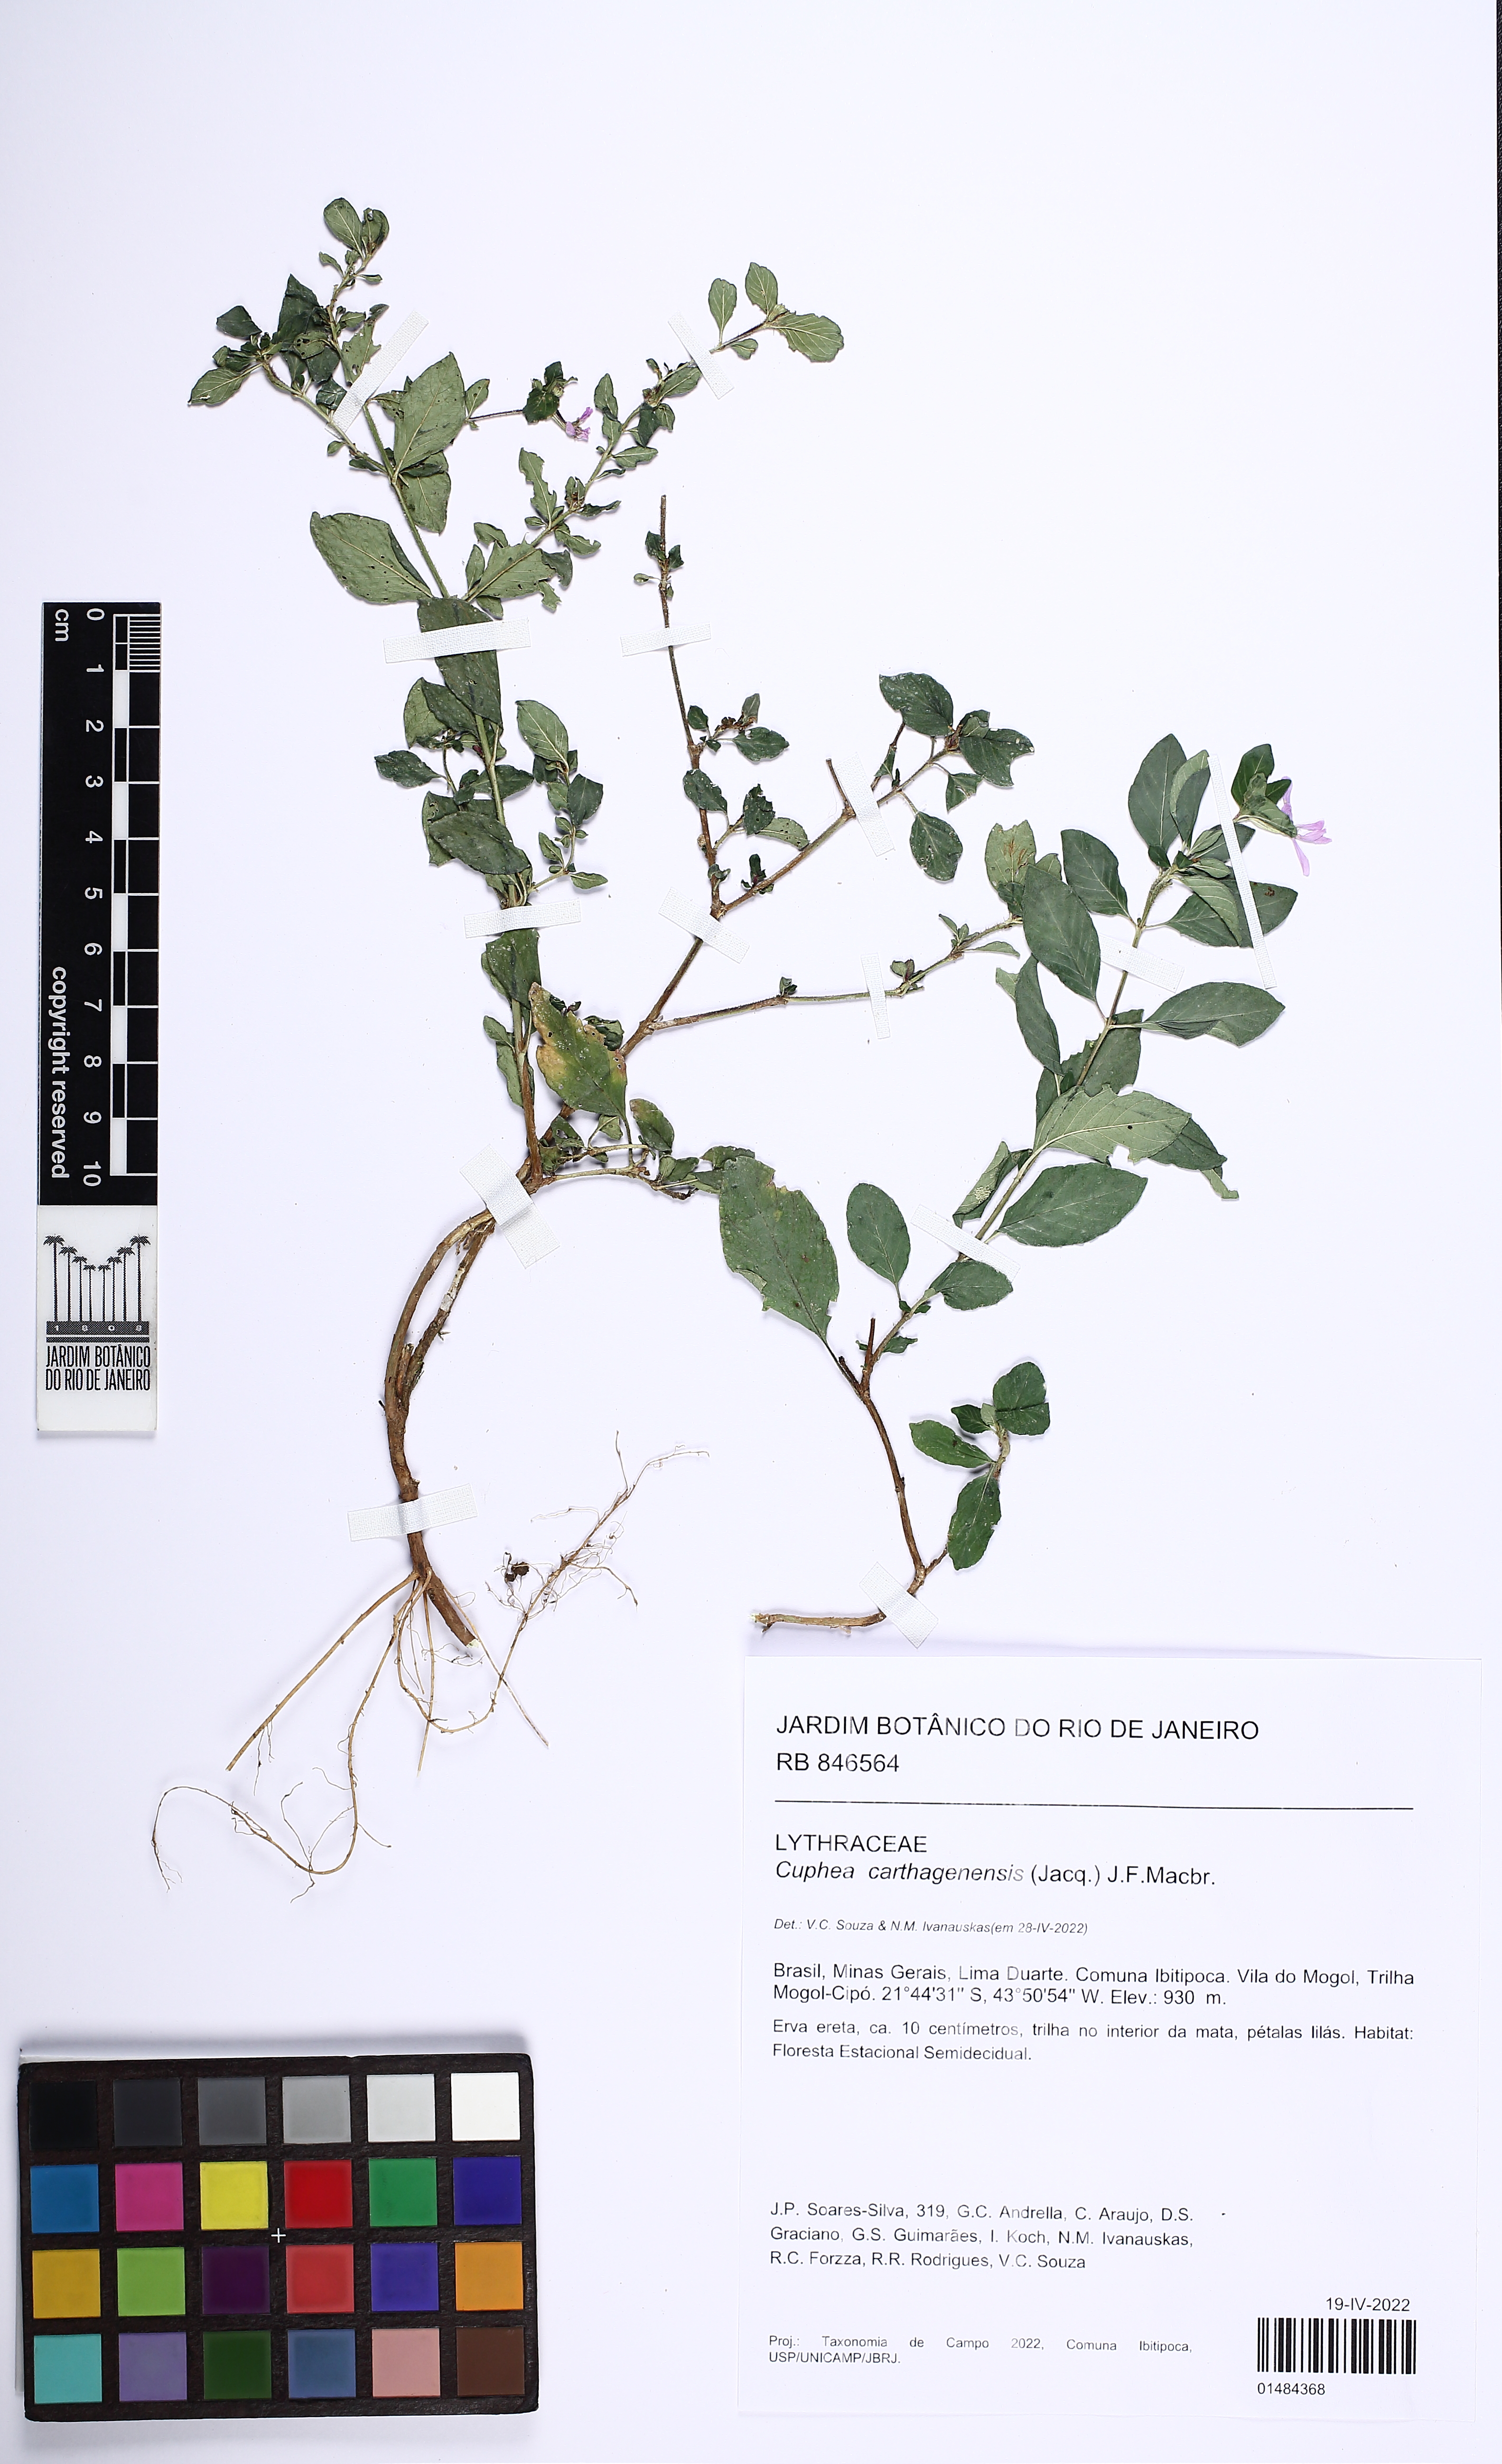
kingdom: Plantae
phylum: Tracheophyta
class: Magnoliopsida
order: Myrtales
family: Lythraceae
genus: Cuphea
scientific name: Cuphea carthagenensis
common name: Colombian waxweed
